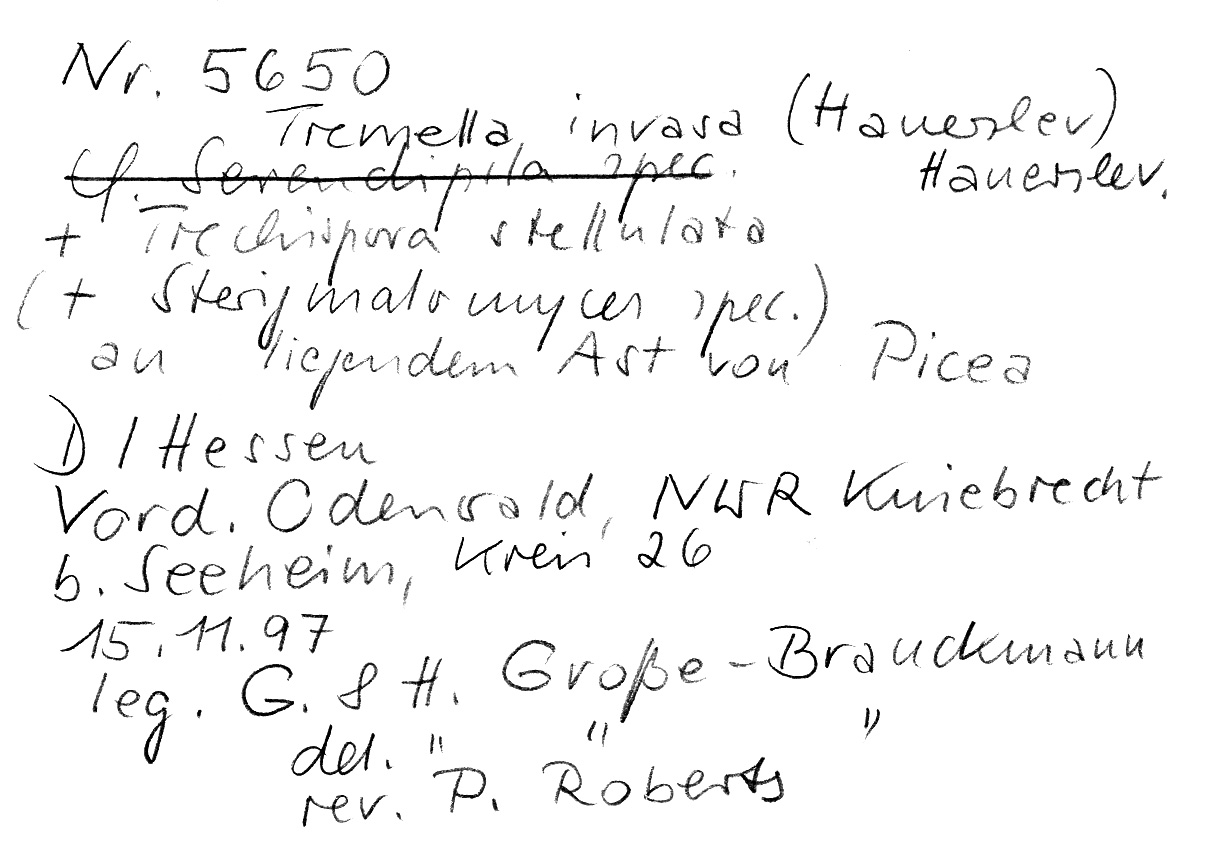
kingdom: Fungi
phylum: Basidiomycota
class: Tremellomycetes
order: Tremellales
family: Tremellaceae
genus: Tremella
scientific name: Tremella invasa
